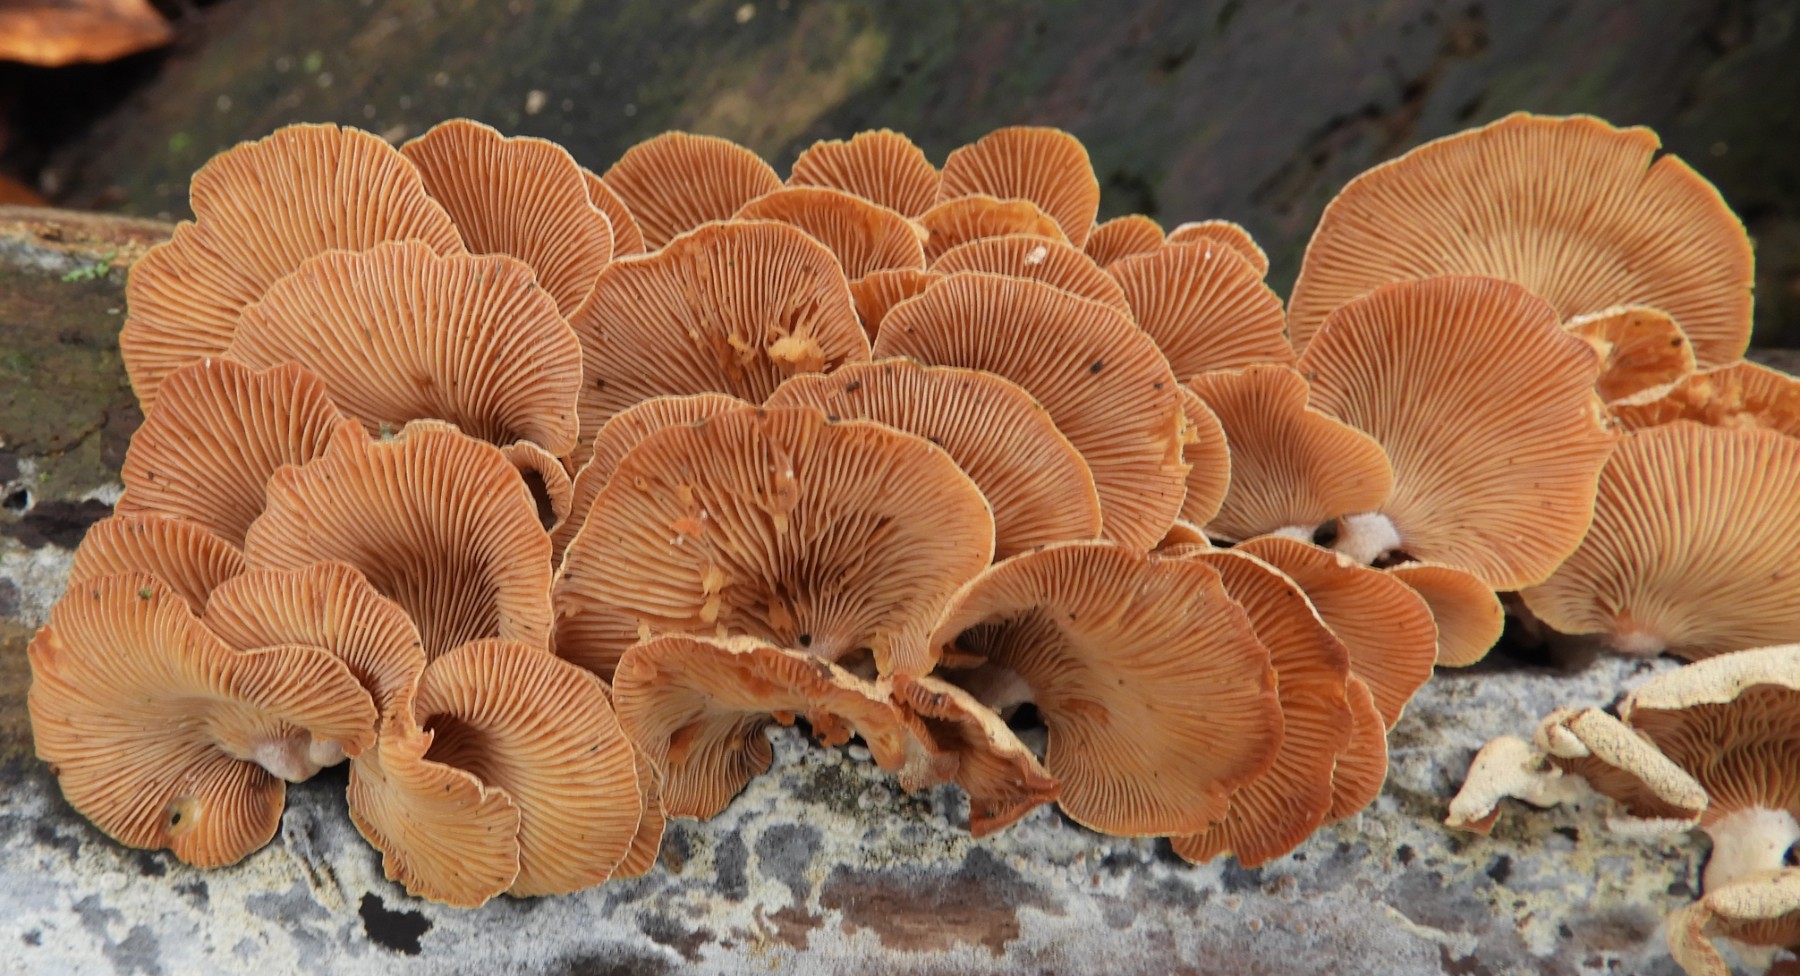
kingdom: Fungi
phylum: Basidiomycota
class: Agaricomycetes
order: Agaricales
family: Mycenaceae
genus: Panellus
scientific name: Panellus stipticus
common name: kliddet epaulethat
